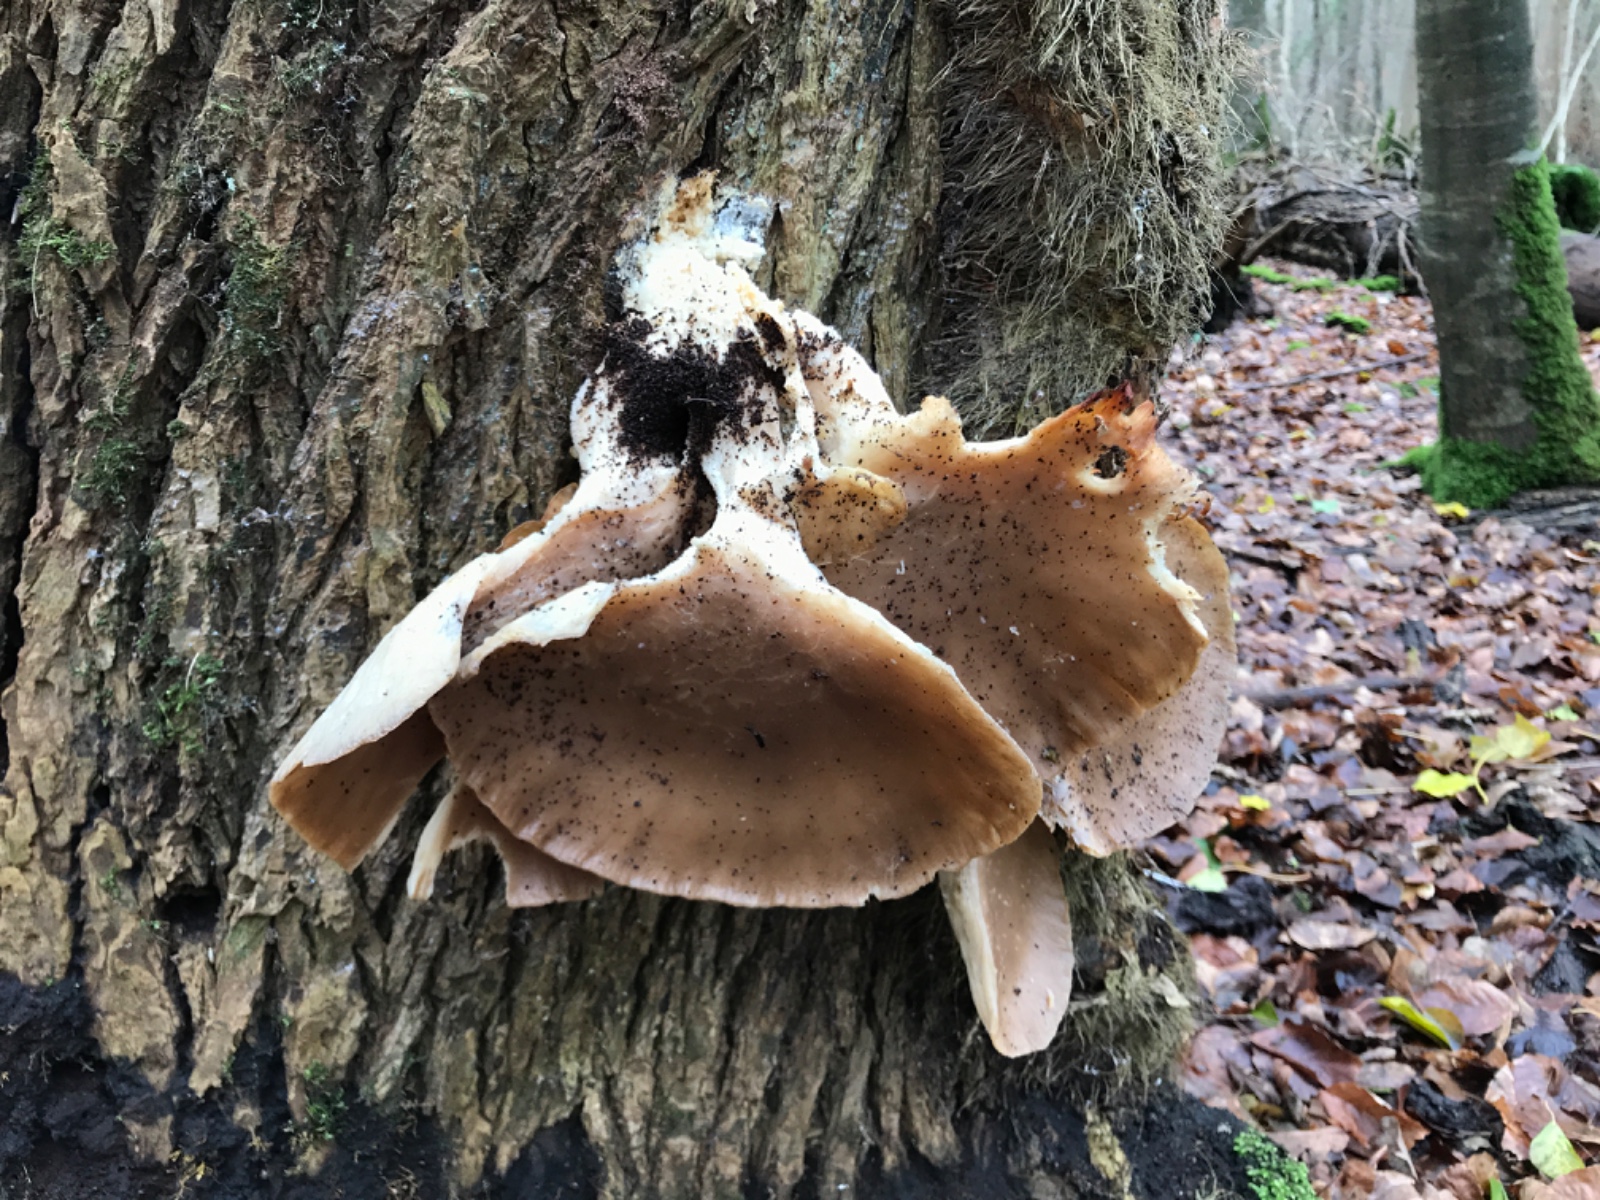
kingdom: Fungi
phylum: Basidiomycota
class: Agaricomycetes
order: Agaricales
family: Pleurotaceae
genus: Pleurotus
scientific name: Pleurotus ostreatus
